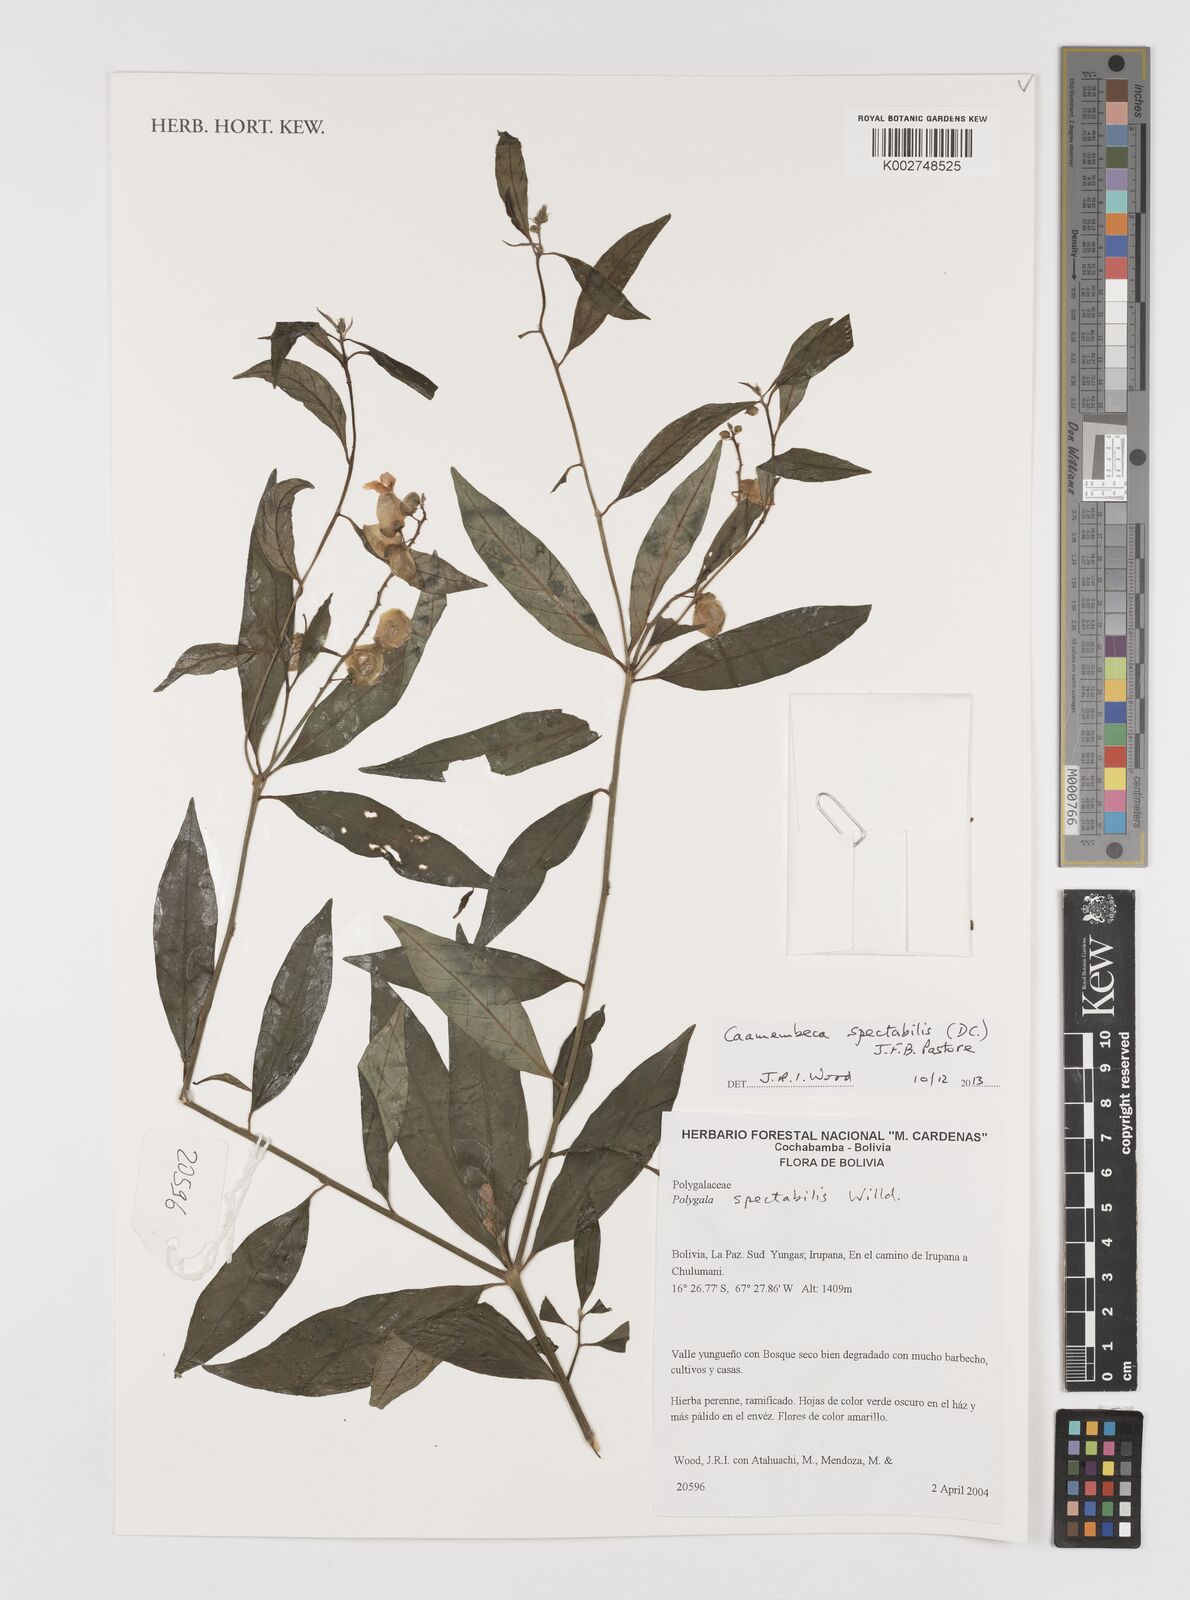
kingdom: Plantae
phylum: Tracheophyta
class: Magnoliopsida
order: Fabales
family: Polygalaceae
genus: Caamembeca
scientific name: Caamembeca spectabilis
